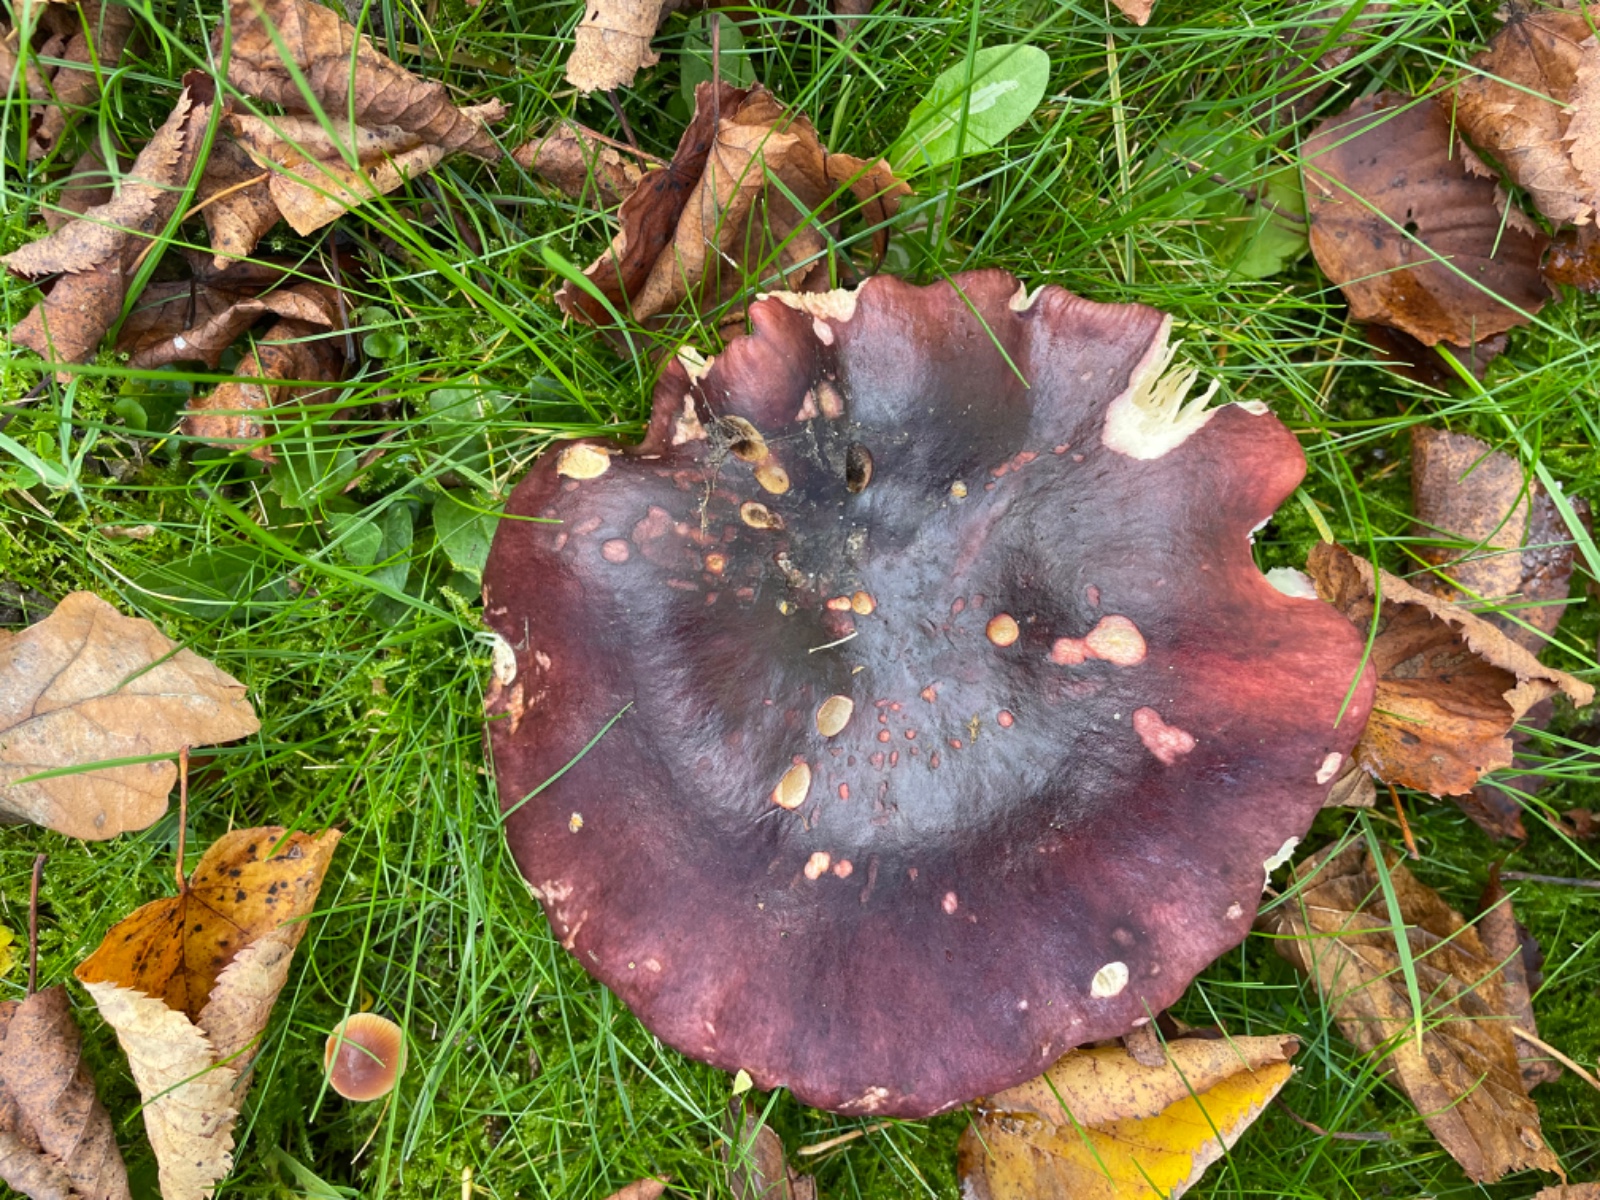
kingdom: Fungi
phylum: Basidiomycota
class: Agaricomycetes
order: Russulales
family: Russulaceae
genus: Russula
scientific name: Russula viscida
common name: knippe-skørhat
